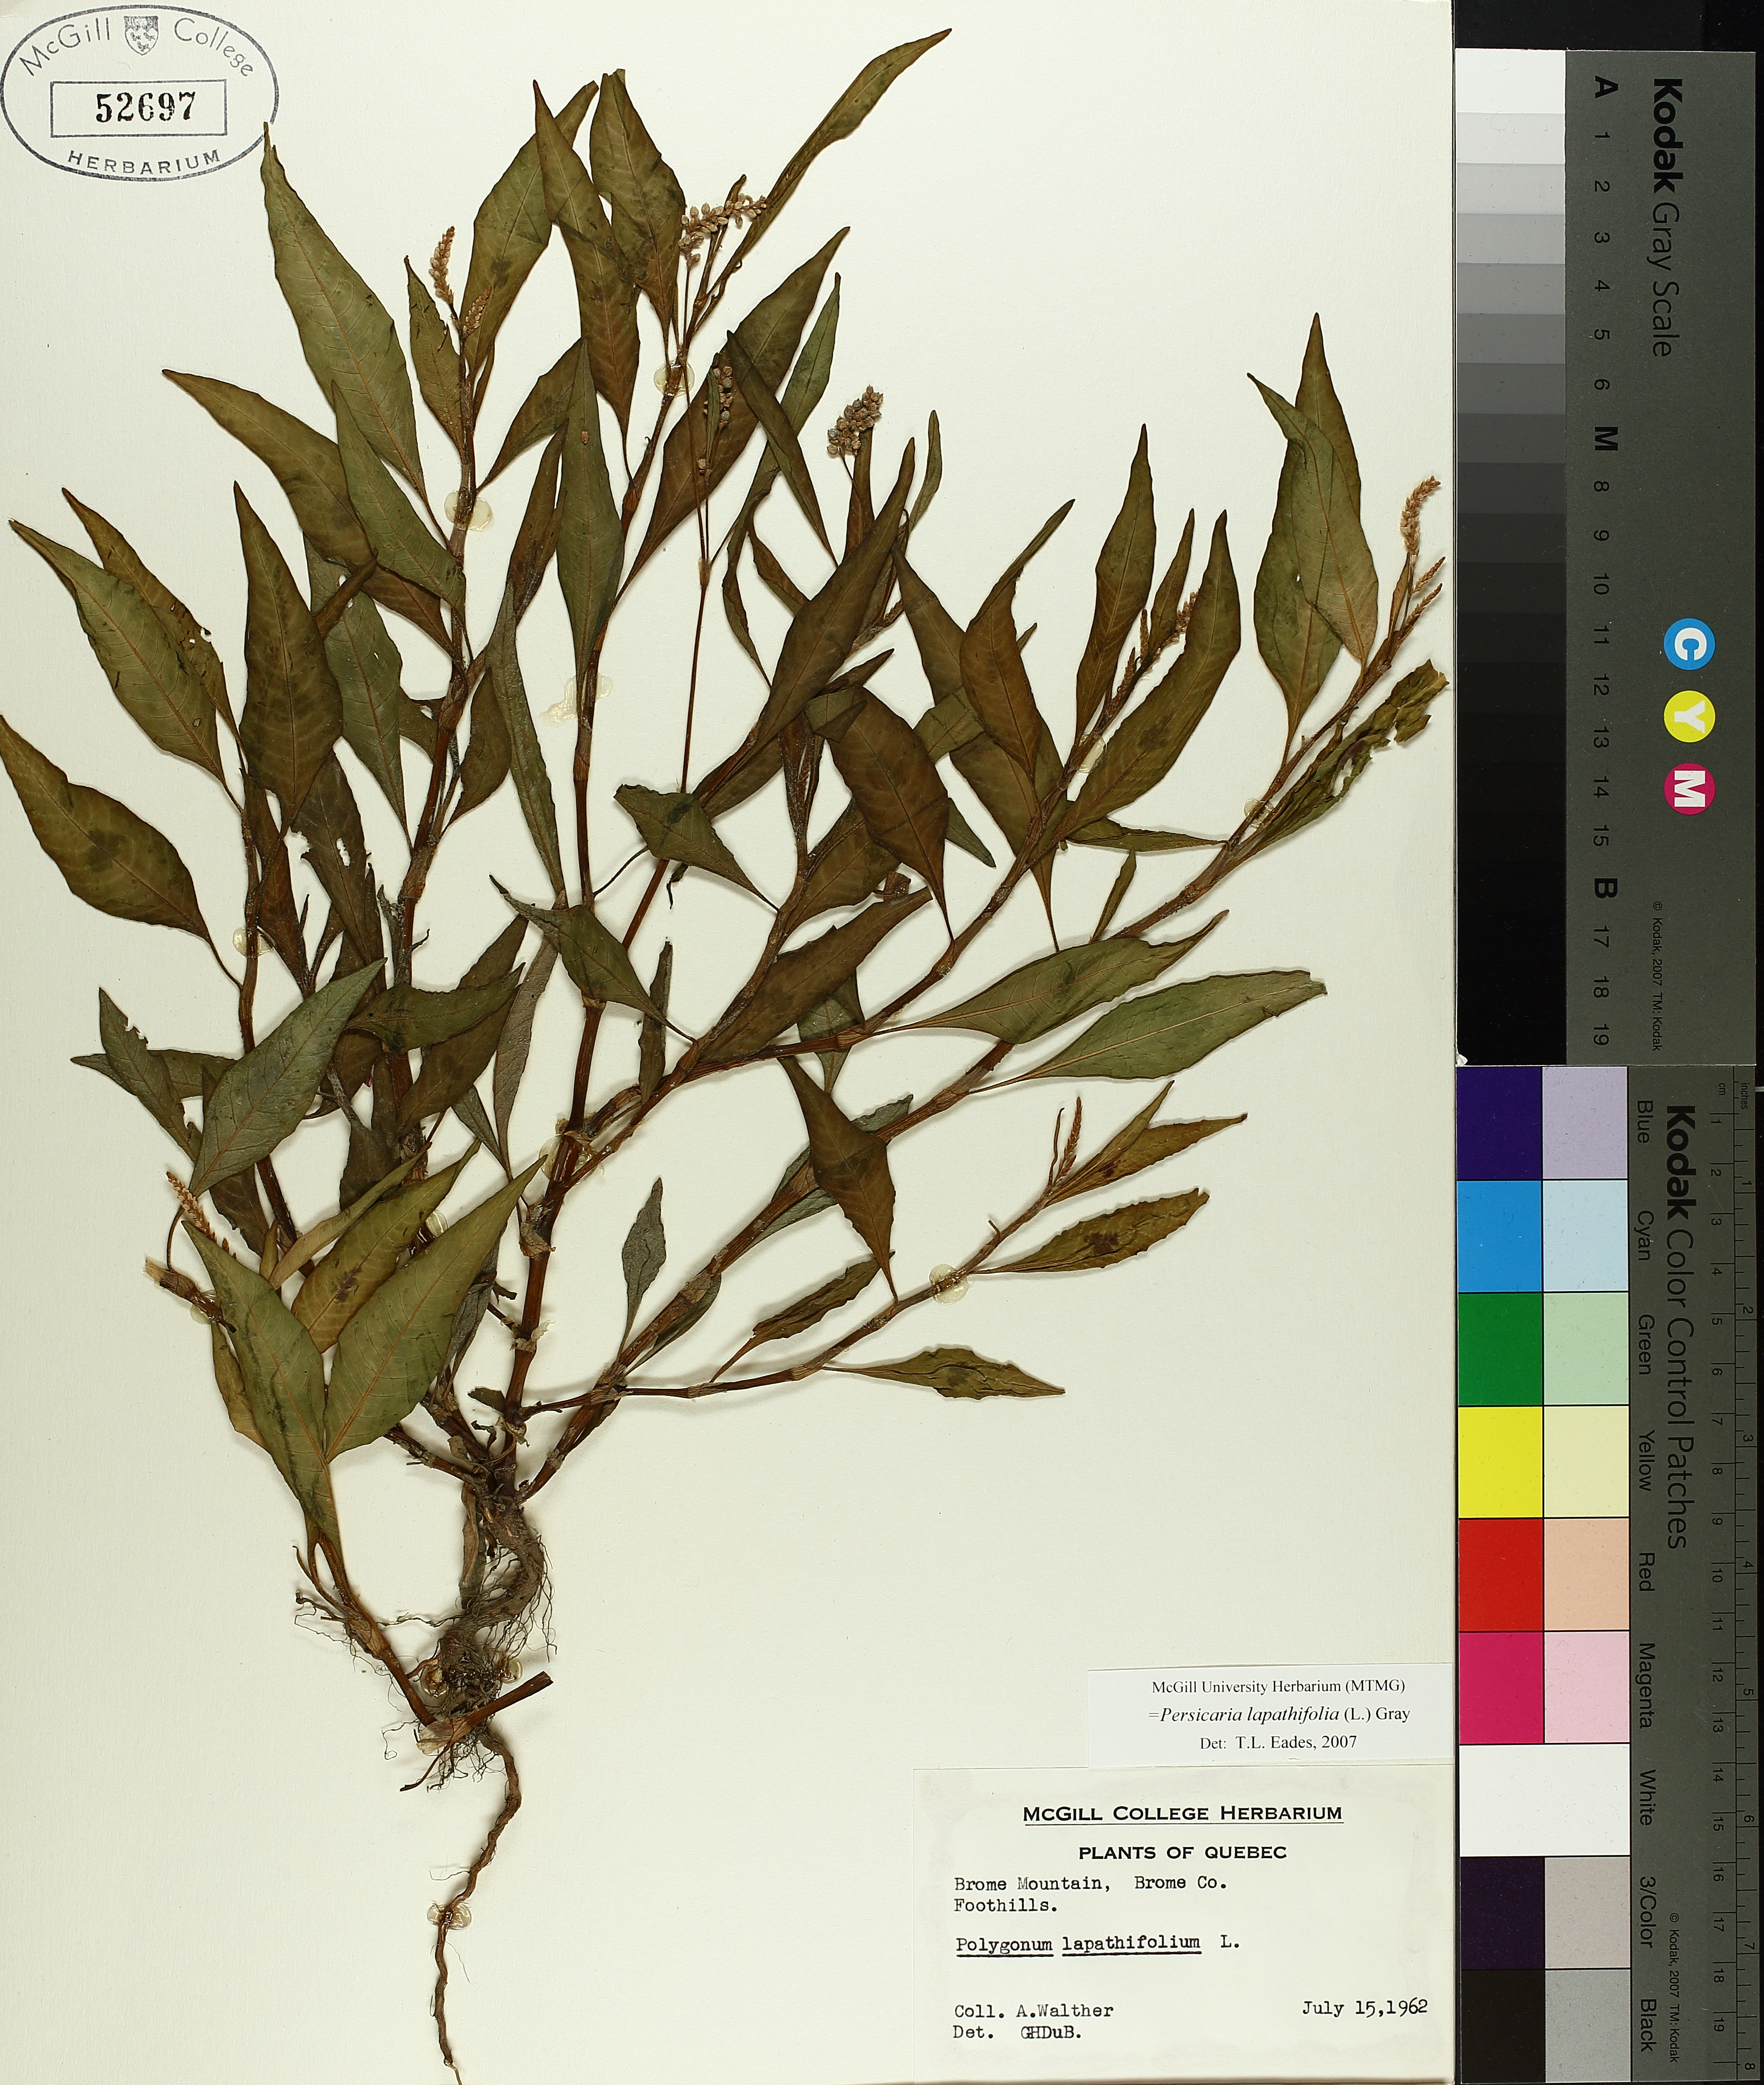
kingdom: Plantae
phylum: Tracheophyta
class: Magnoliopsida
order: Caryophyllales
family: Polygonaceae
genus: Persicaria
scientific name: Persicaria lapathifolia
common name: Curlytop knotweed
